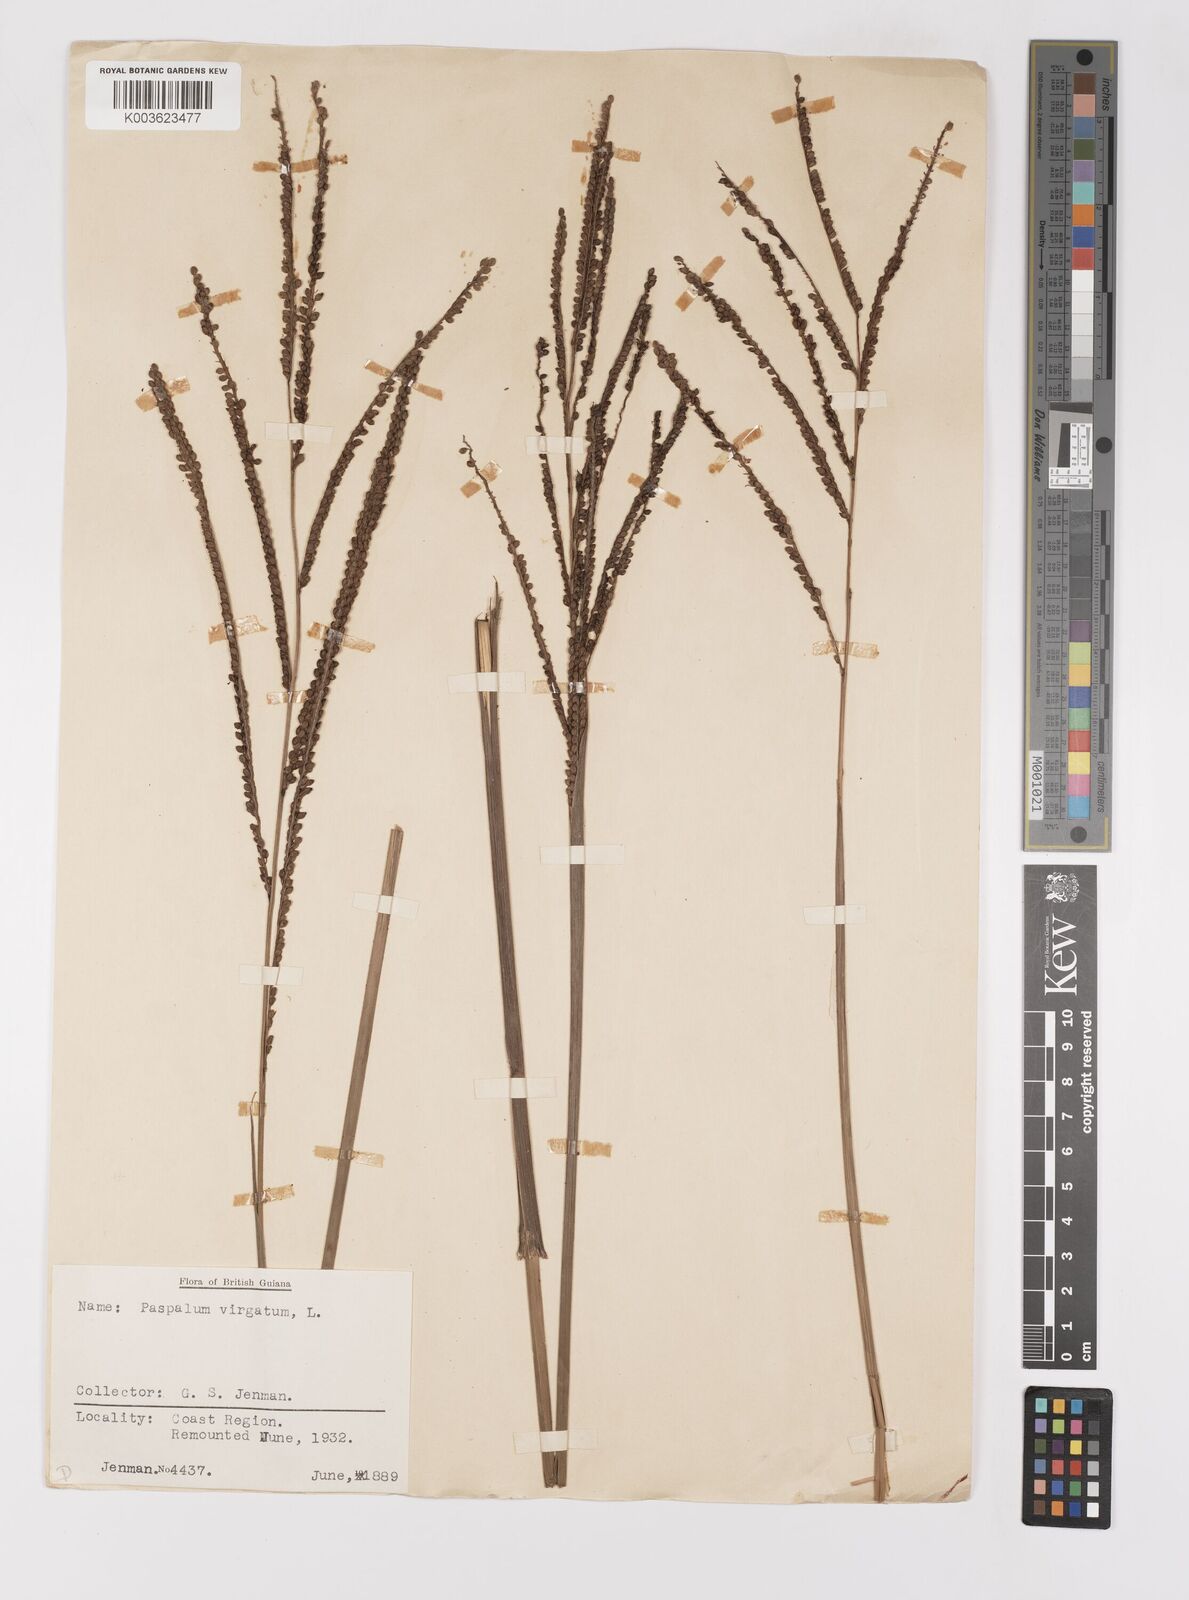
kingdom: Plantae
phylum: Tracheophyta
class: Liliopsida
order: Poales
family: Poaceae
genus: Paspalum
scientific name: Paspalum virgatum
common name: Talquezal
